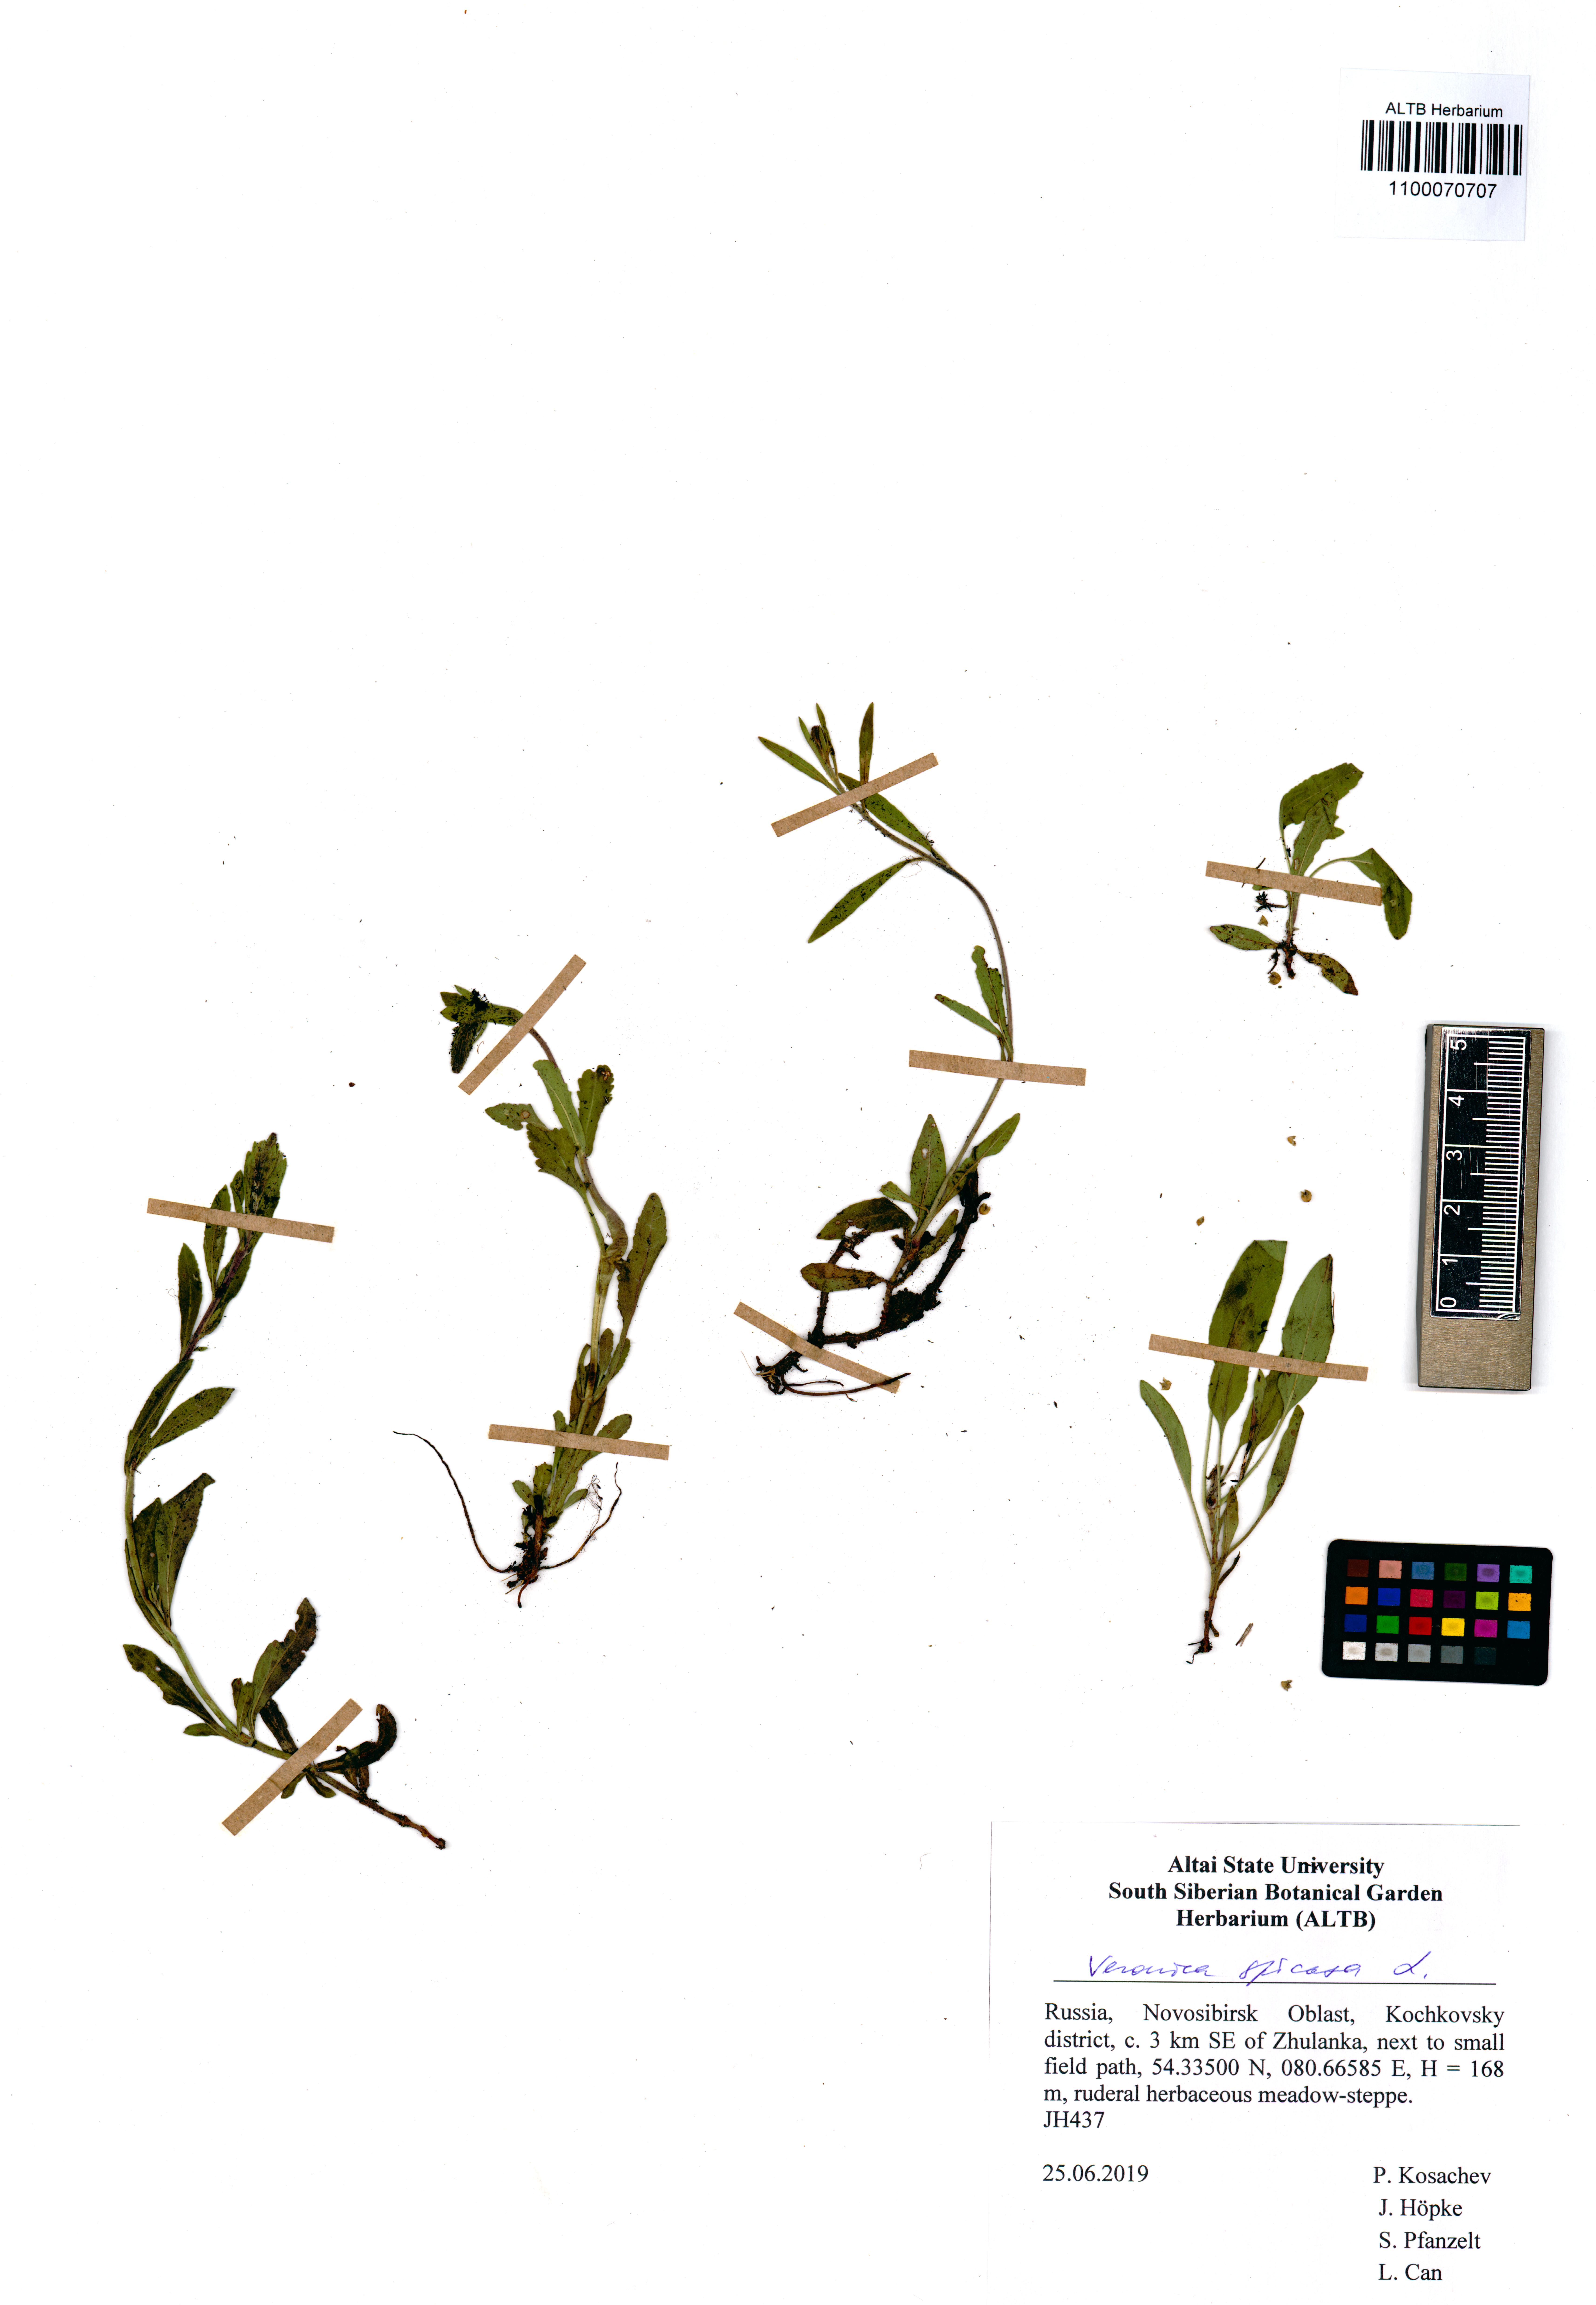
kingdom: Plantae
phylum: Tracheophyta
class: Magnoliopsida
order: Lamiales
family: Plantaginaceae
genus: Veronica
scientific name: Veronica spicata
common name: Spiked speedwell
